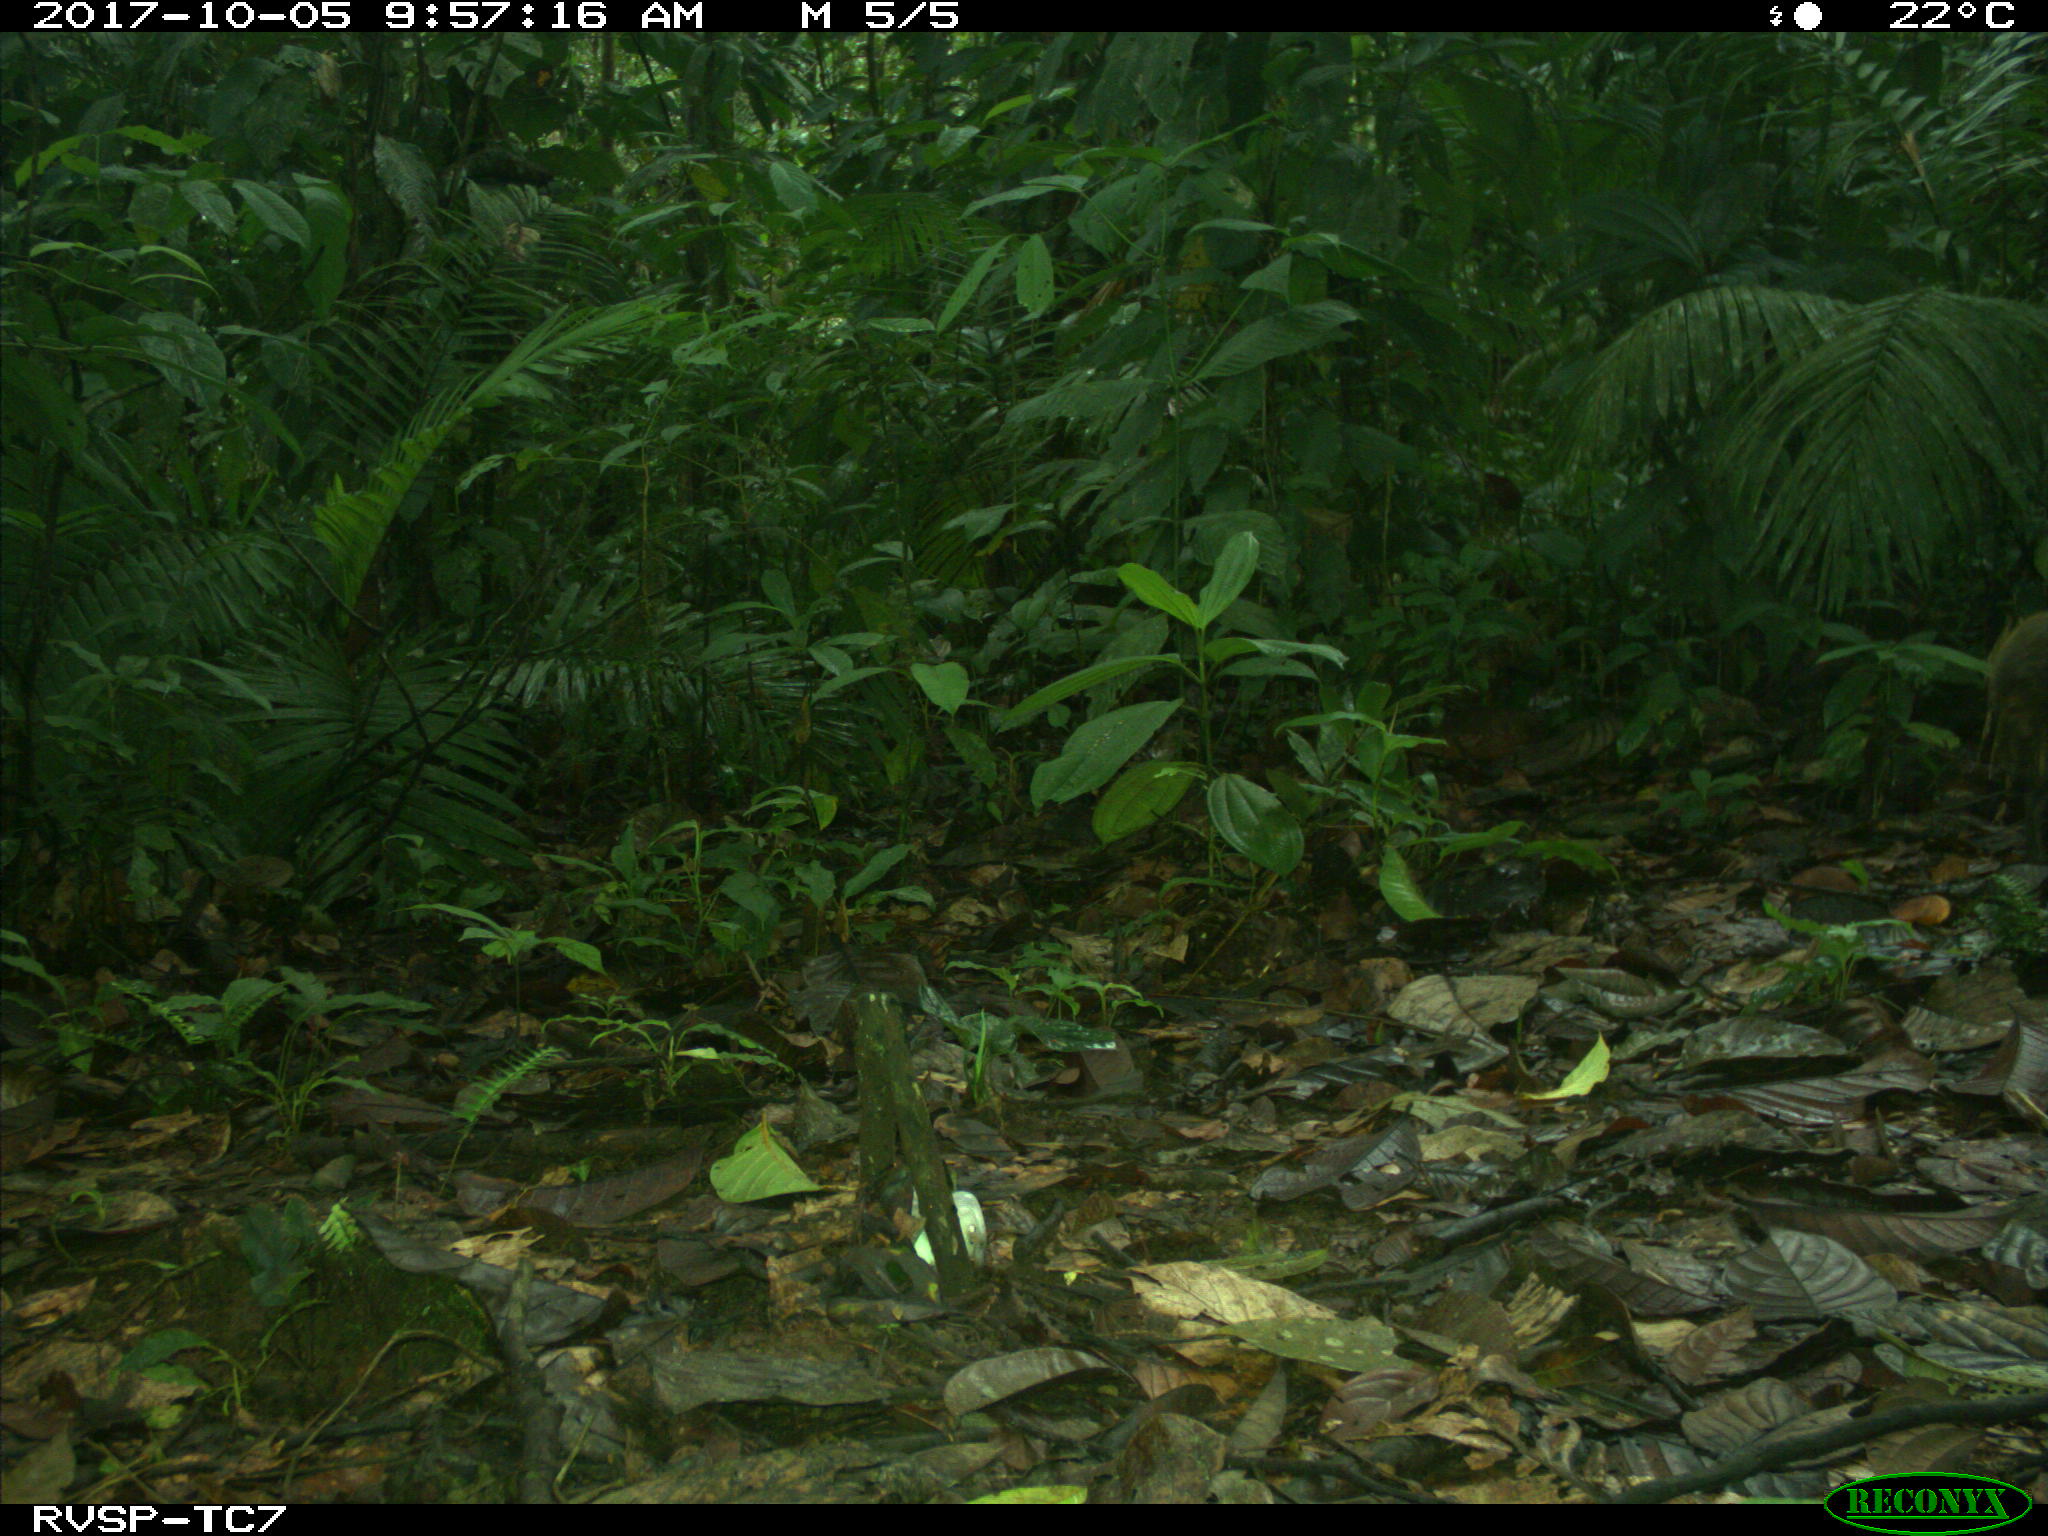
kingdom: Animalia
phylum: Chordata
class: Mammalia
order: Rodentia
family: Dasyproctidae
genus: Dasyprocta
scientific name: Dasyprocta punctata
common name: Central american agouti
